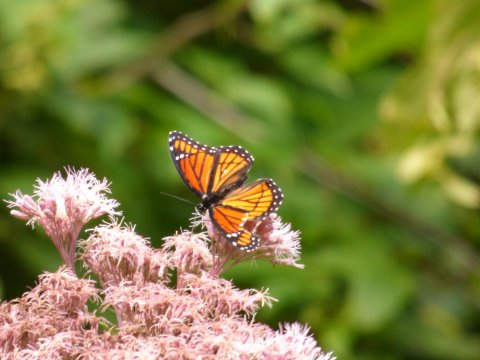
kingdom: Animalia
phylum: Arthropoda
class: Insecta
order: Lepidoptera
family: Nymphalidae
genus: Limenitis
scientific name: Limenitis archippus
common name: Viceroy
